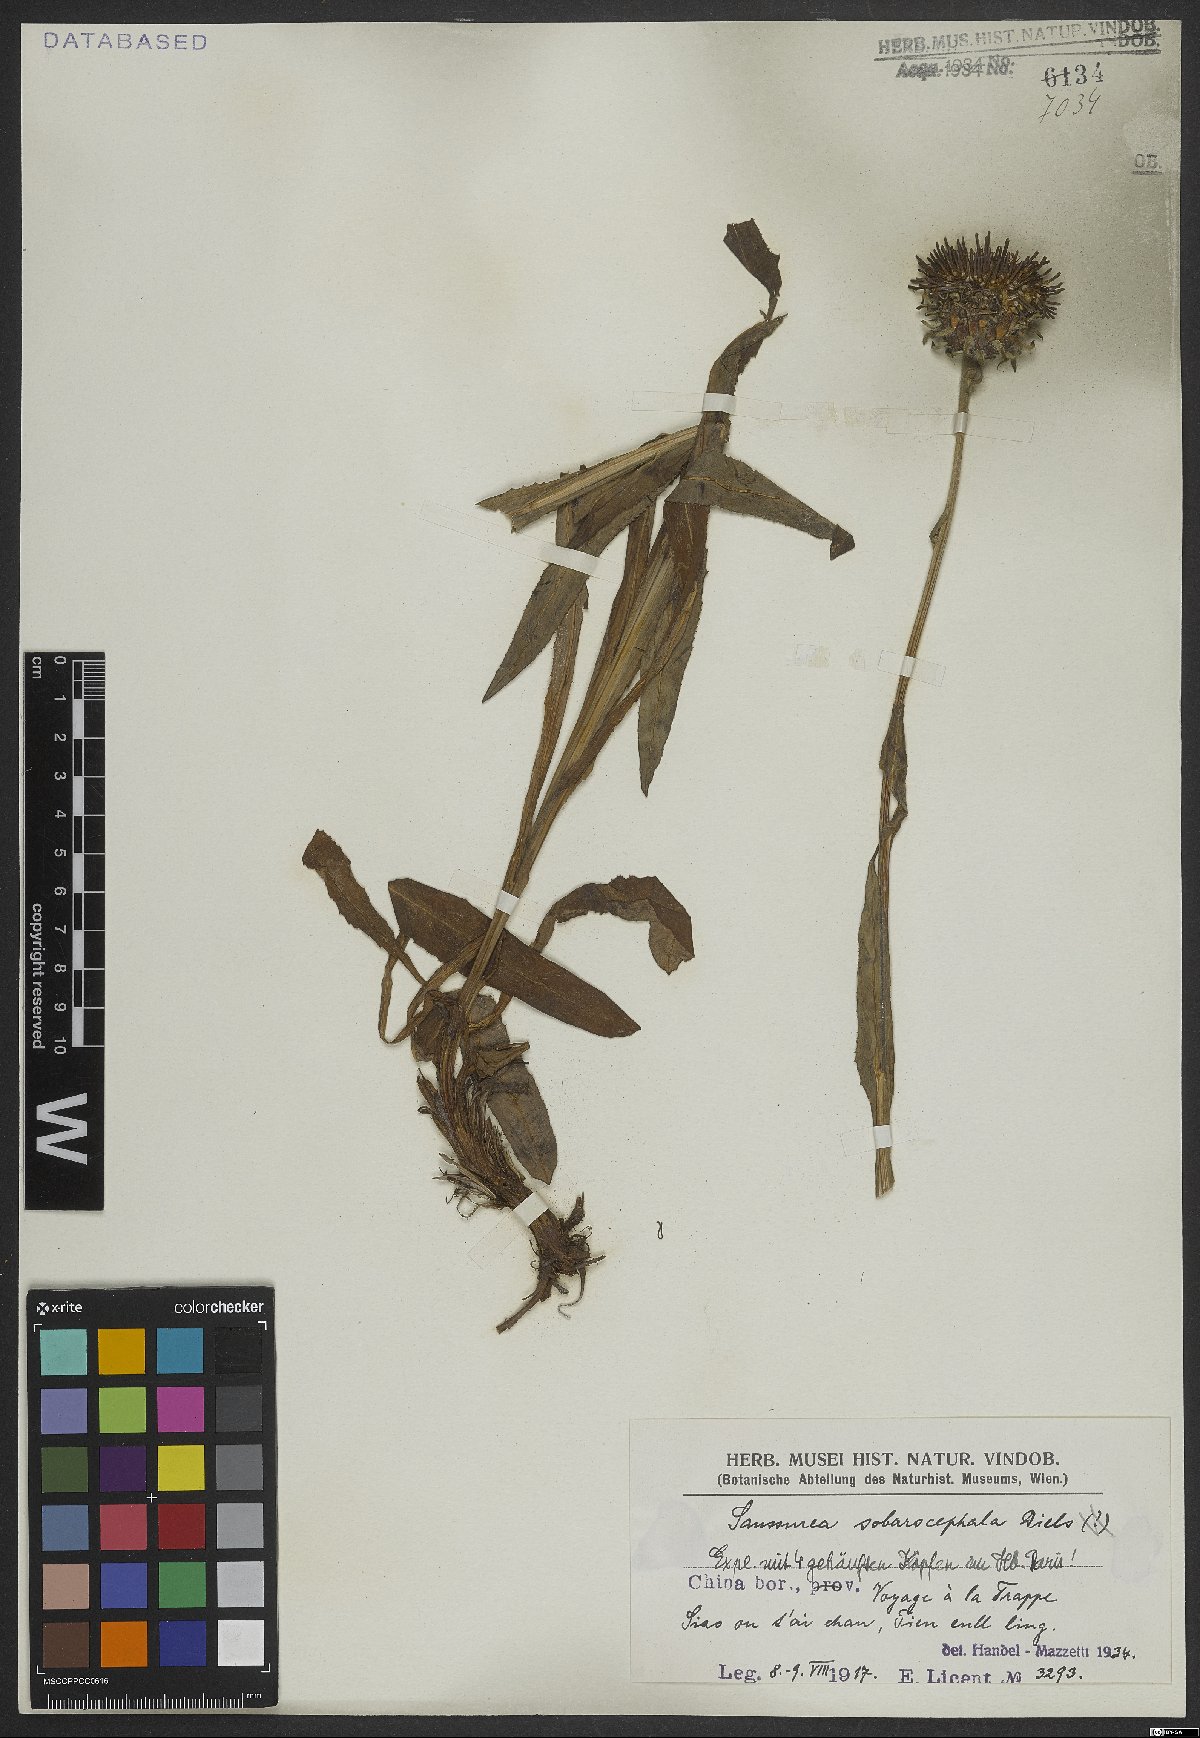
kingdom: Plantae
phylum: Tracheophyta
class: Magnoliopsida
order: Asterales
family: Asteraceae
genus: Saussurea
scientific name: Saussurea sobarocephala
